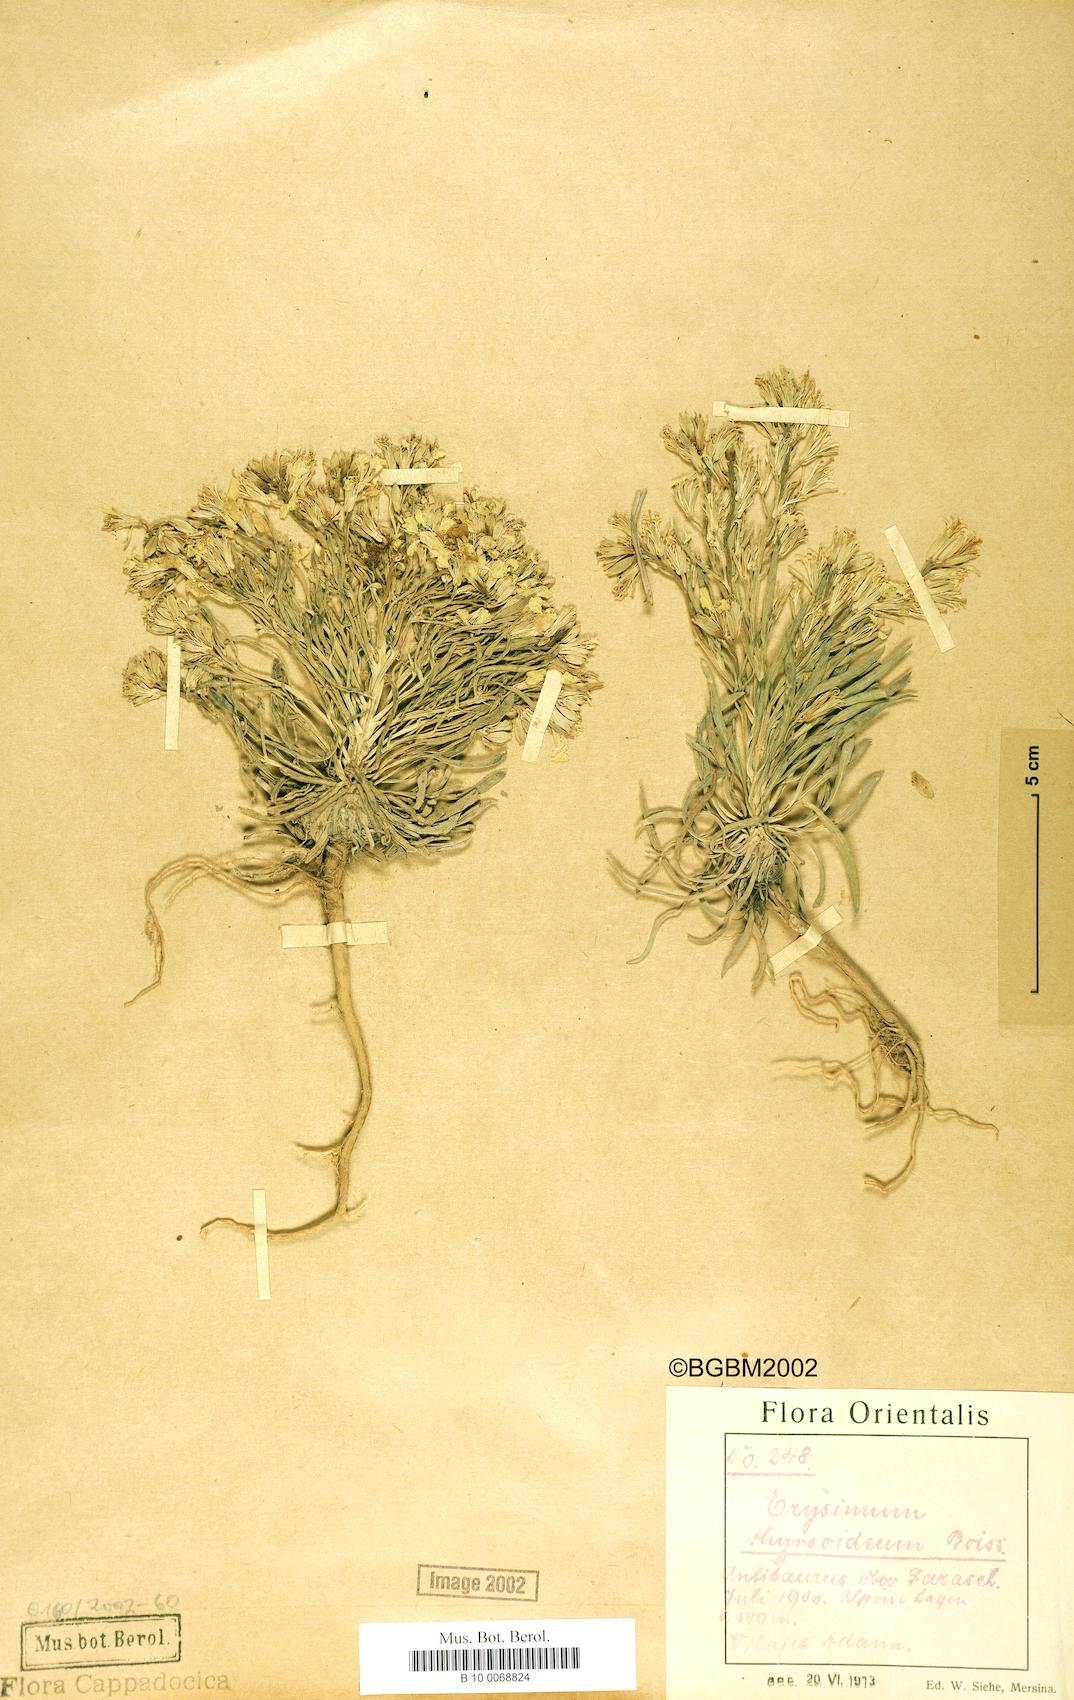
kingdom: Plantae
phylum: Tracheophyta
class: Magnoliopsida
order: Brassicales
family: Brassicaceae
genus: Erysimum
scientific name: Erysimum pycnophyllum
